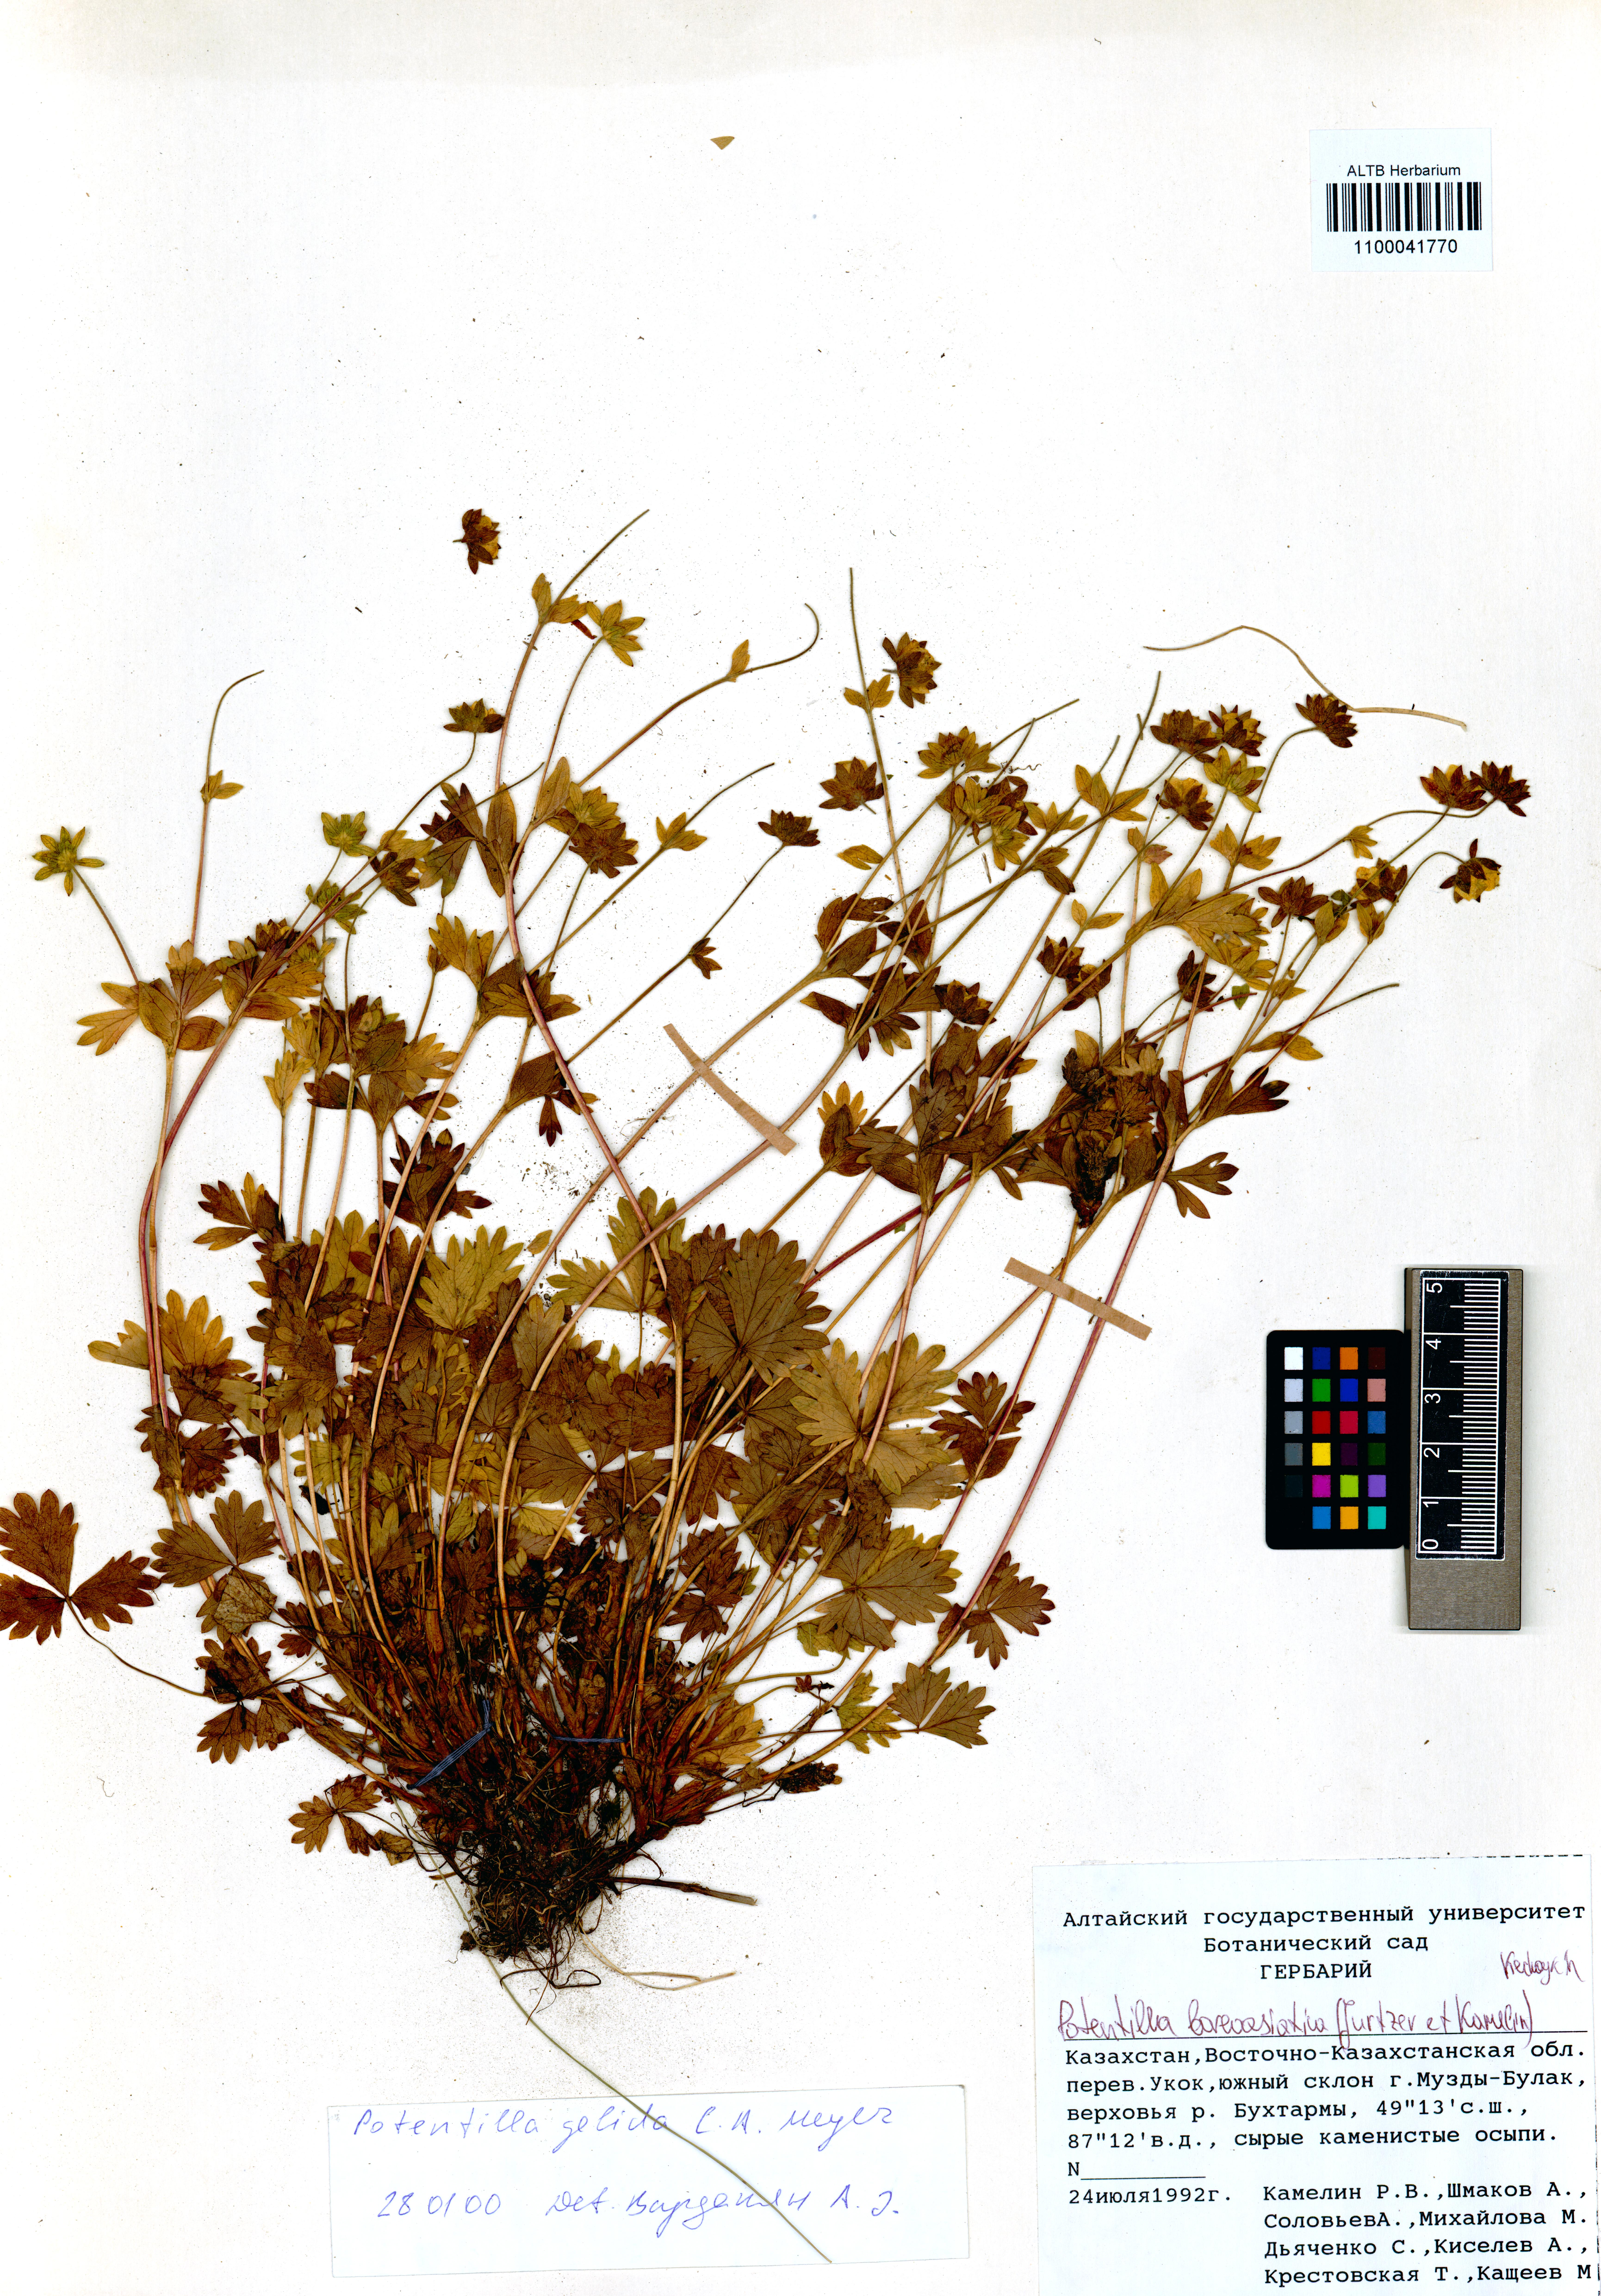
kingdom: Plantae
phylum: Tracheophyta
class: Magnoliopsida
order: Rosales
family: Rosaceae
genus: Potentilla
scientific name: Potentilla
